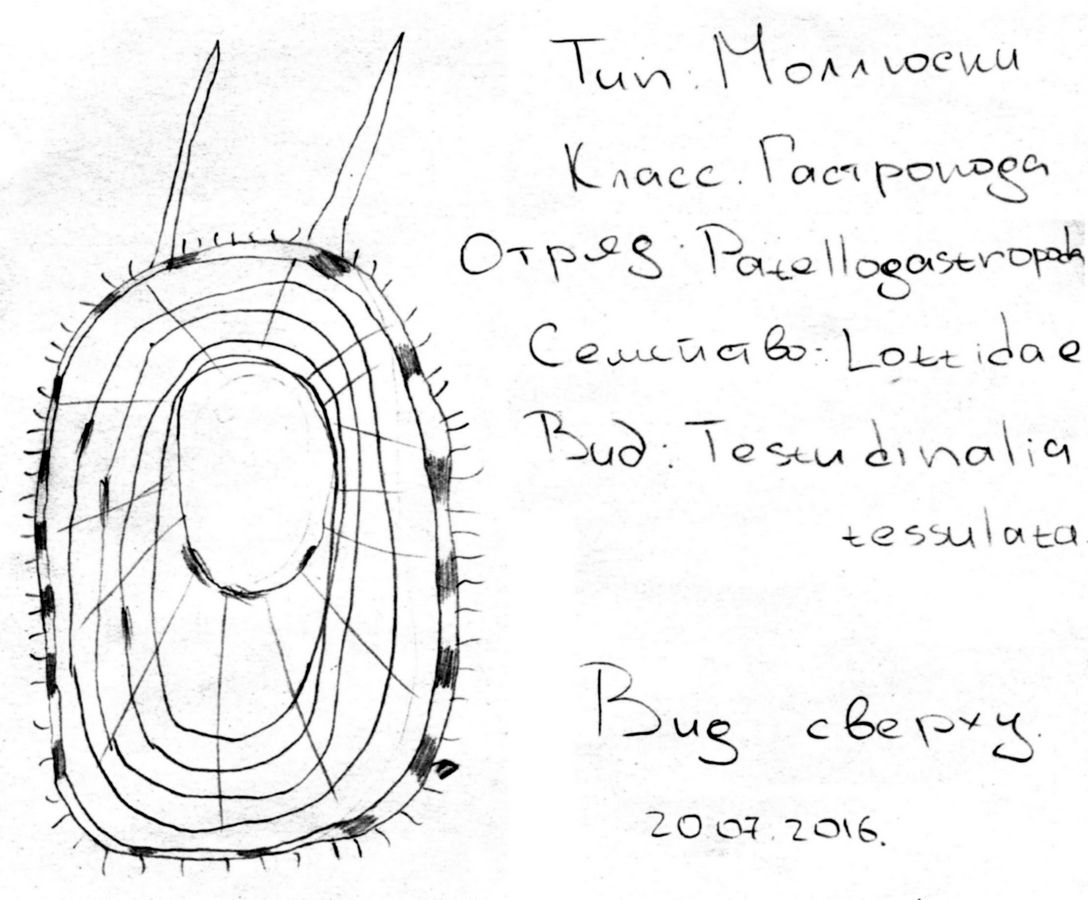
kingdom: Animalia
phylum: Mollusca
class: Gastropoda
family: Lottiidae
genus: Testudinalia
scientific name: Testudinalia testudinalis
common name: Common tortoiseshell limpet
